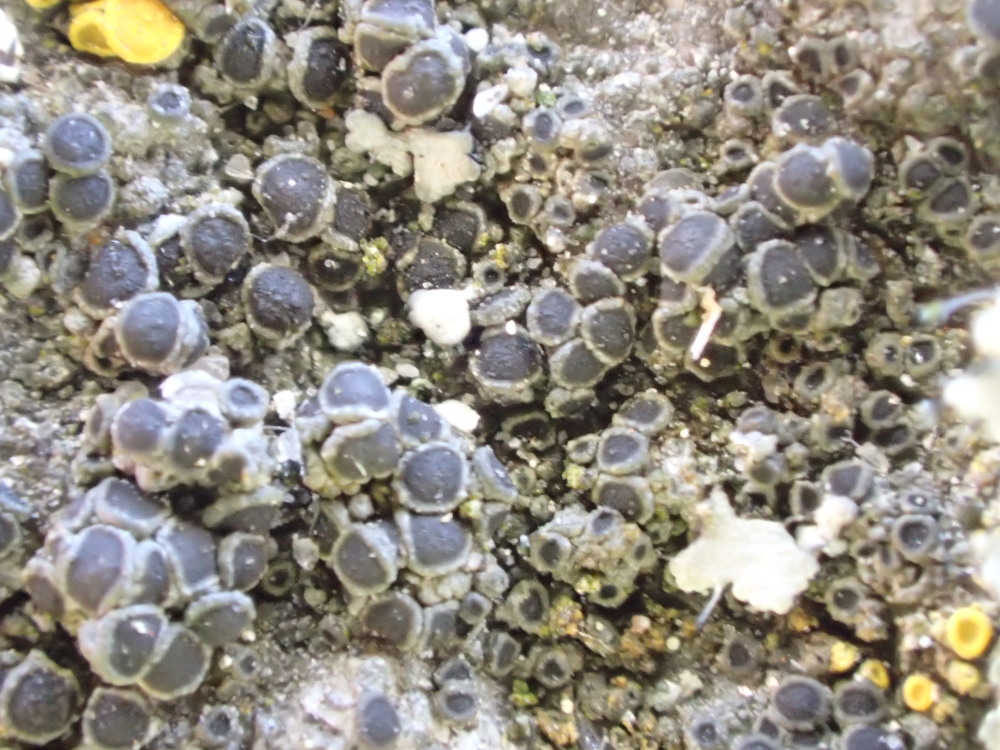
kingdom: Fungi
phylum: Ascomycota
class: Lecanoromycetes
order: Caliciales
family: Physciaceae
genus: Rinodina
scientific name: Rinodina oleae
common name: kyst-knaplav
